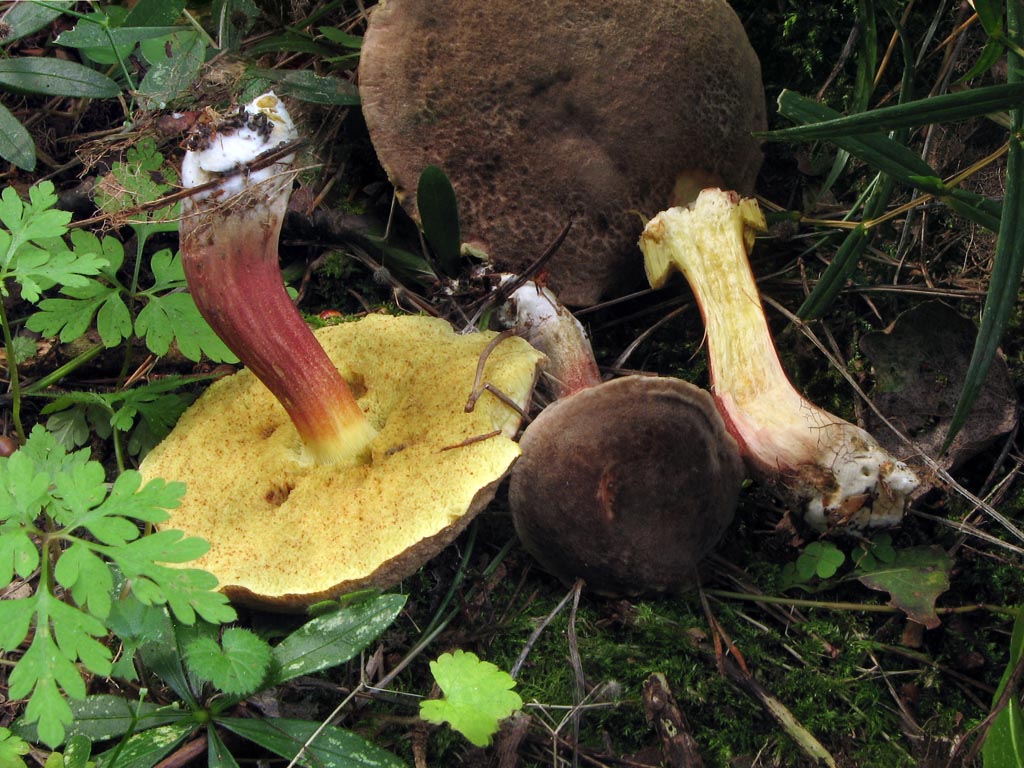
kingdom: Fungi
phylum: Basidiomycota
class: Agaricomycetes
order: Boletales
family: Boletaceae
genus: Xerocomellus
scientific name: Xerocomellus chrysenteron
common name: rødsprukken rørhat
